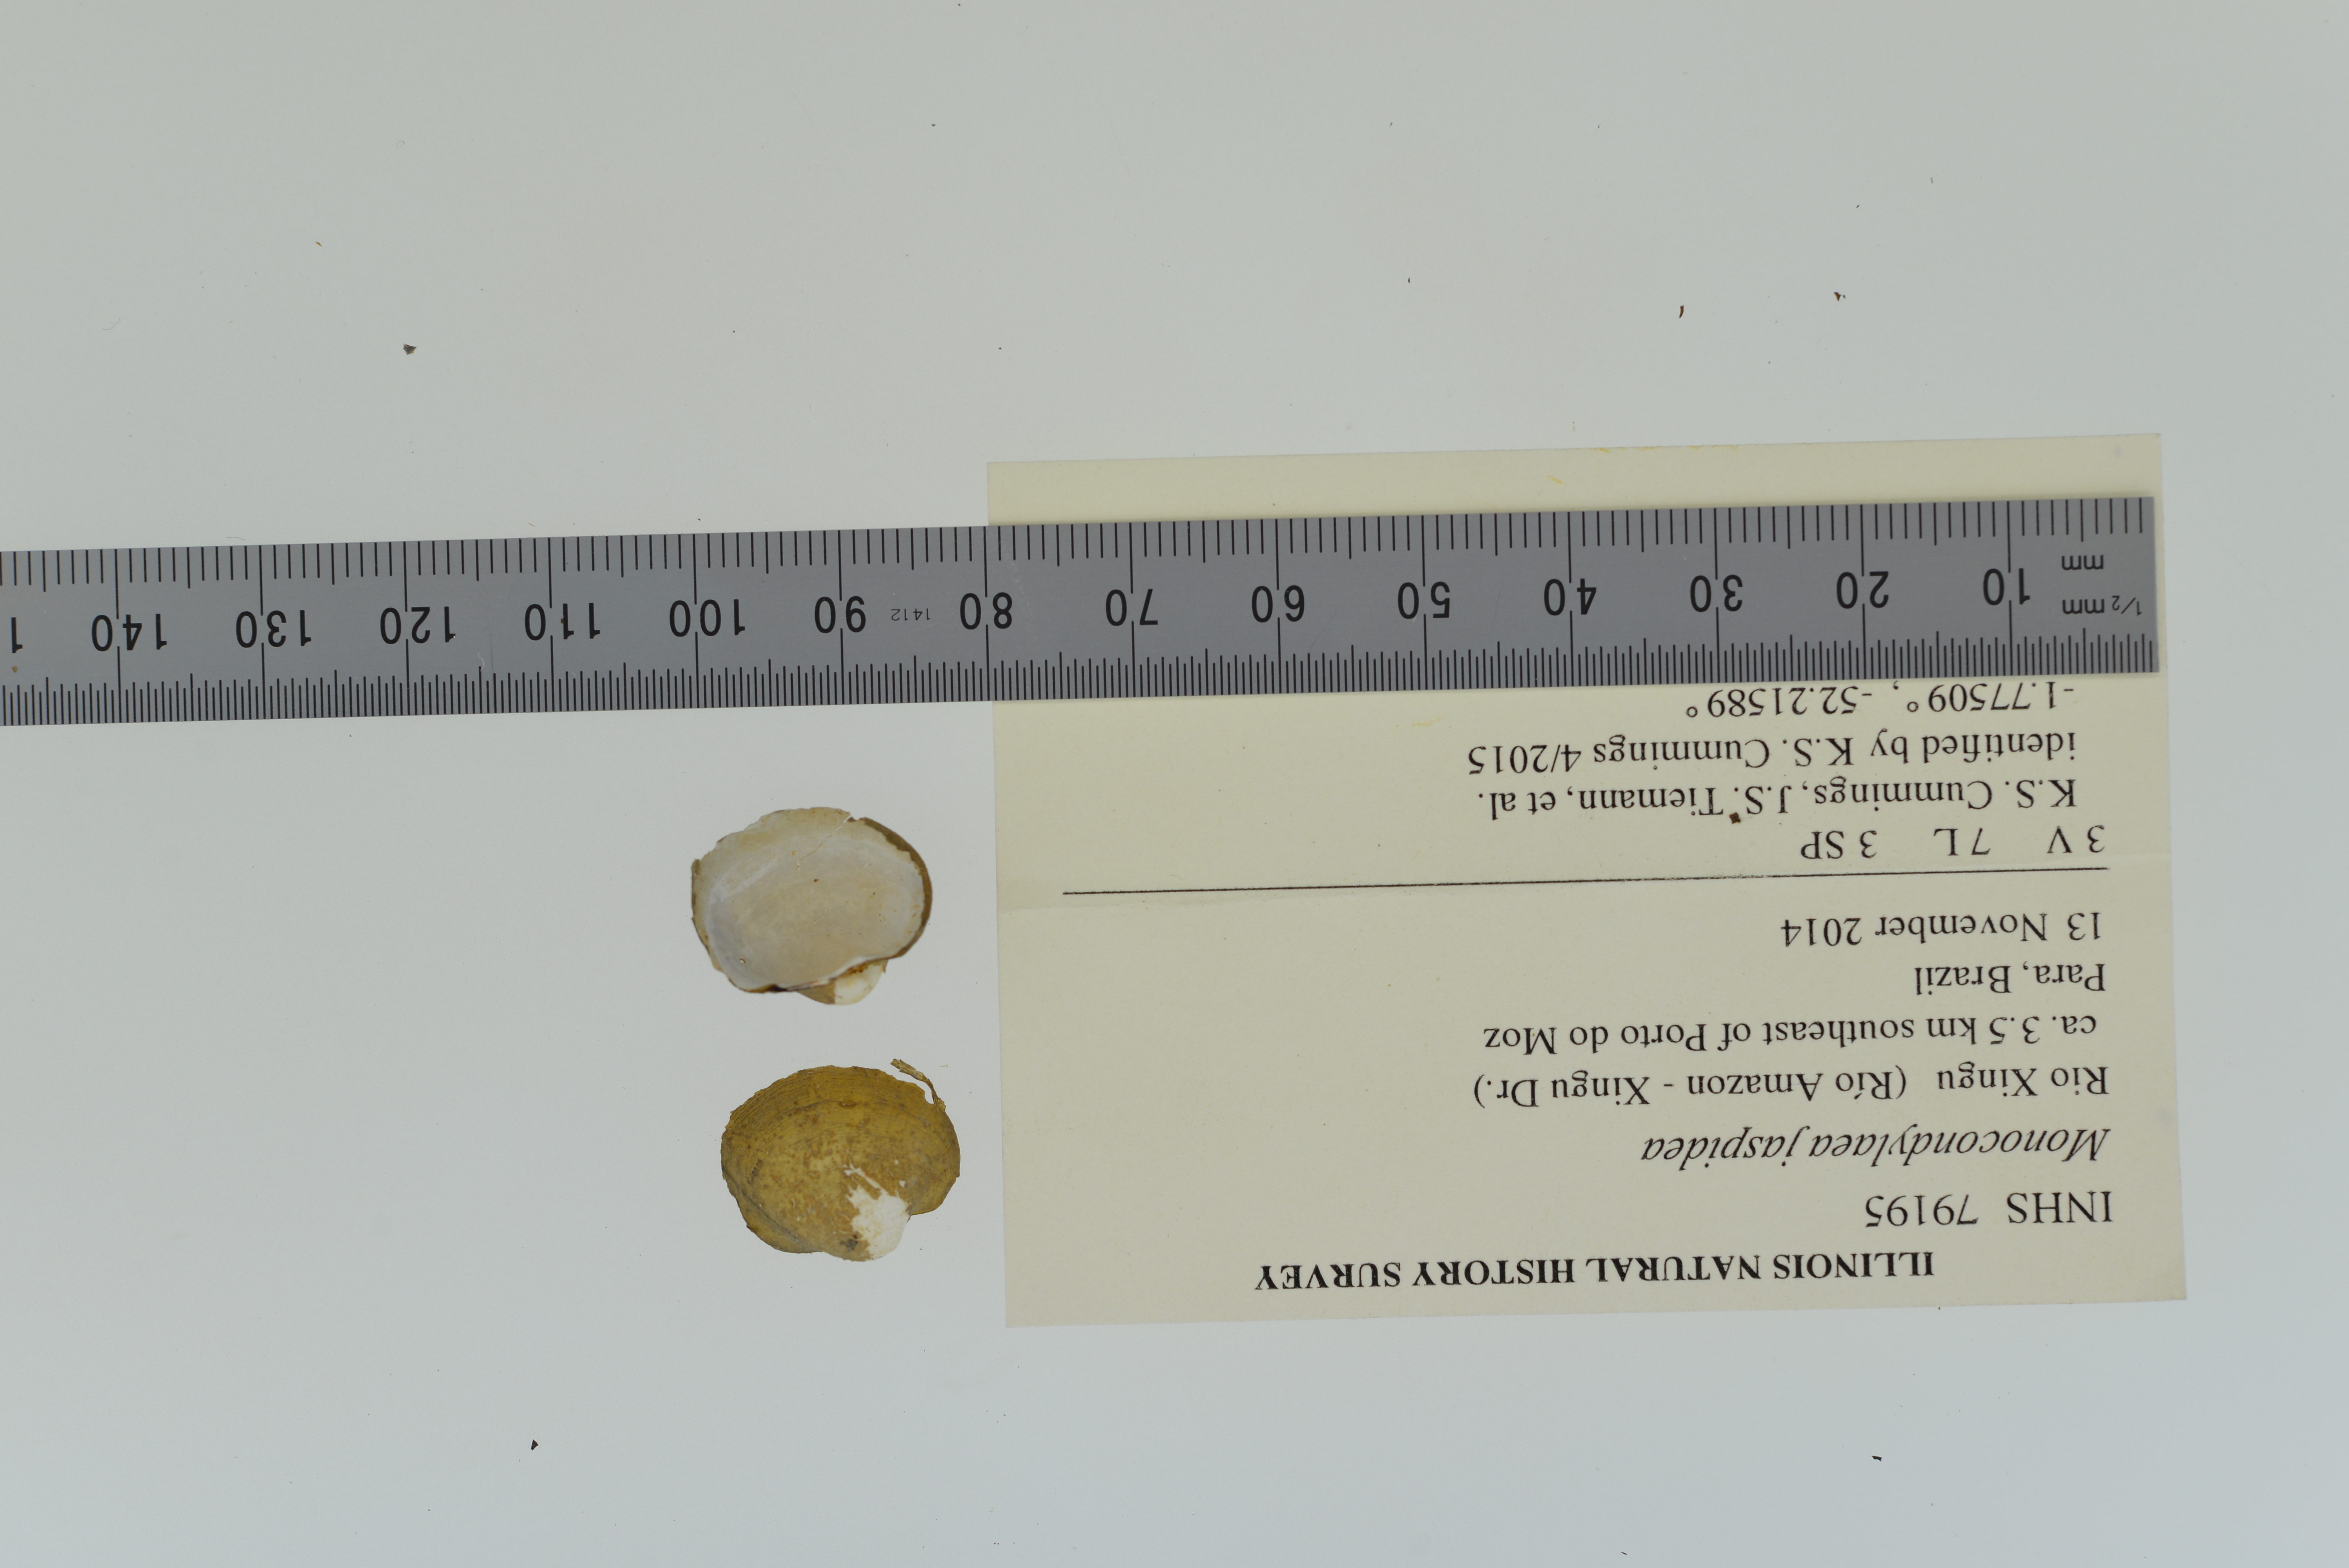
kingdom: Animalia
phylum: Mollusca
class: Bivalvia
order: Unionida
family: Mycetopodidae
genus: Monocondylaea
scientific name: Monocondylaea jaspidea
